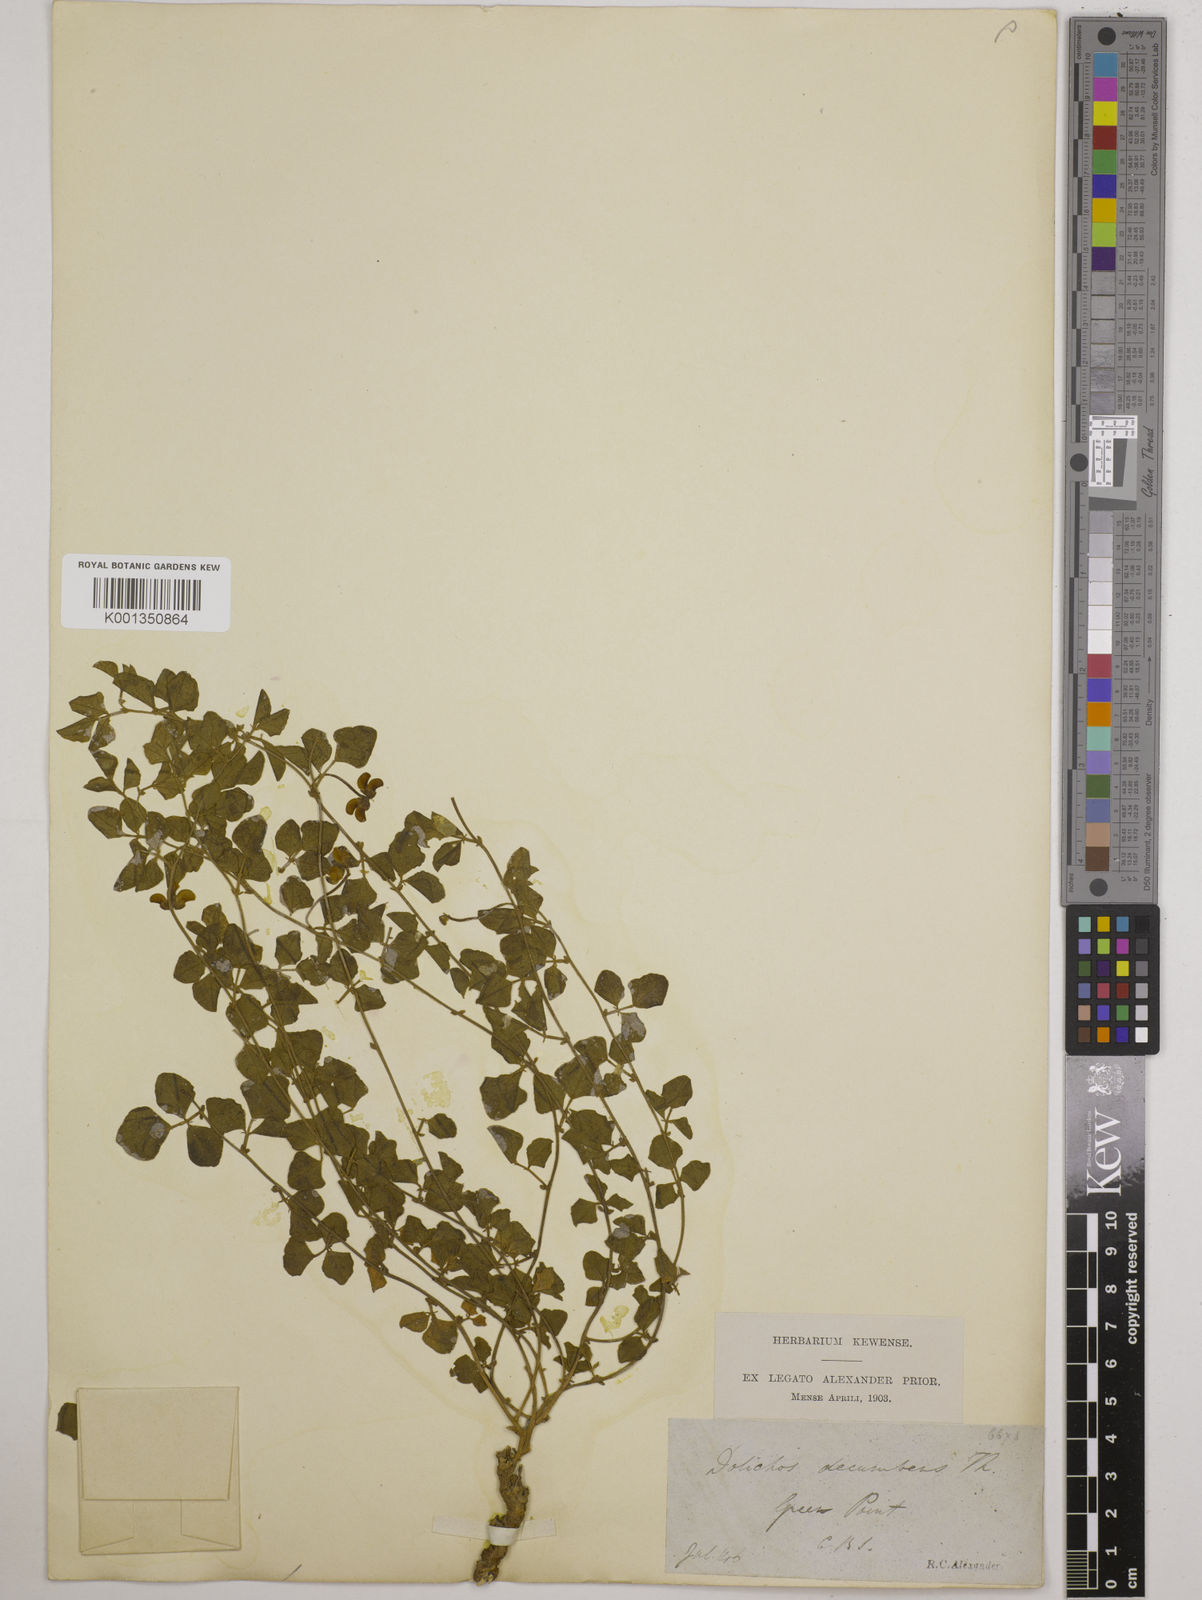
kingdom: Plantae
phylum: Tracheophyta
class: Magnoliopsida
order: Fabales
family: Fabaceae
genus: Dolichos
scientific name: Dolichos decumbens
